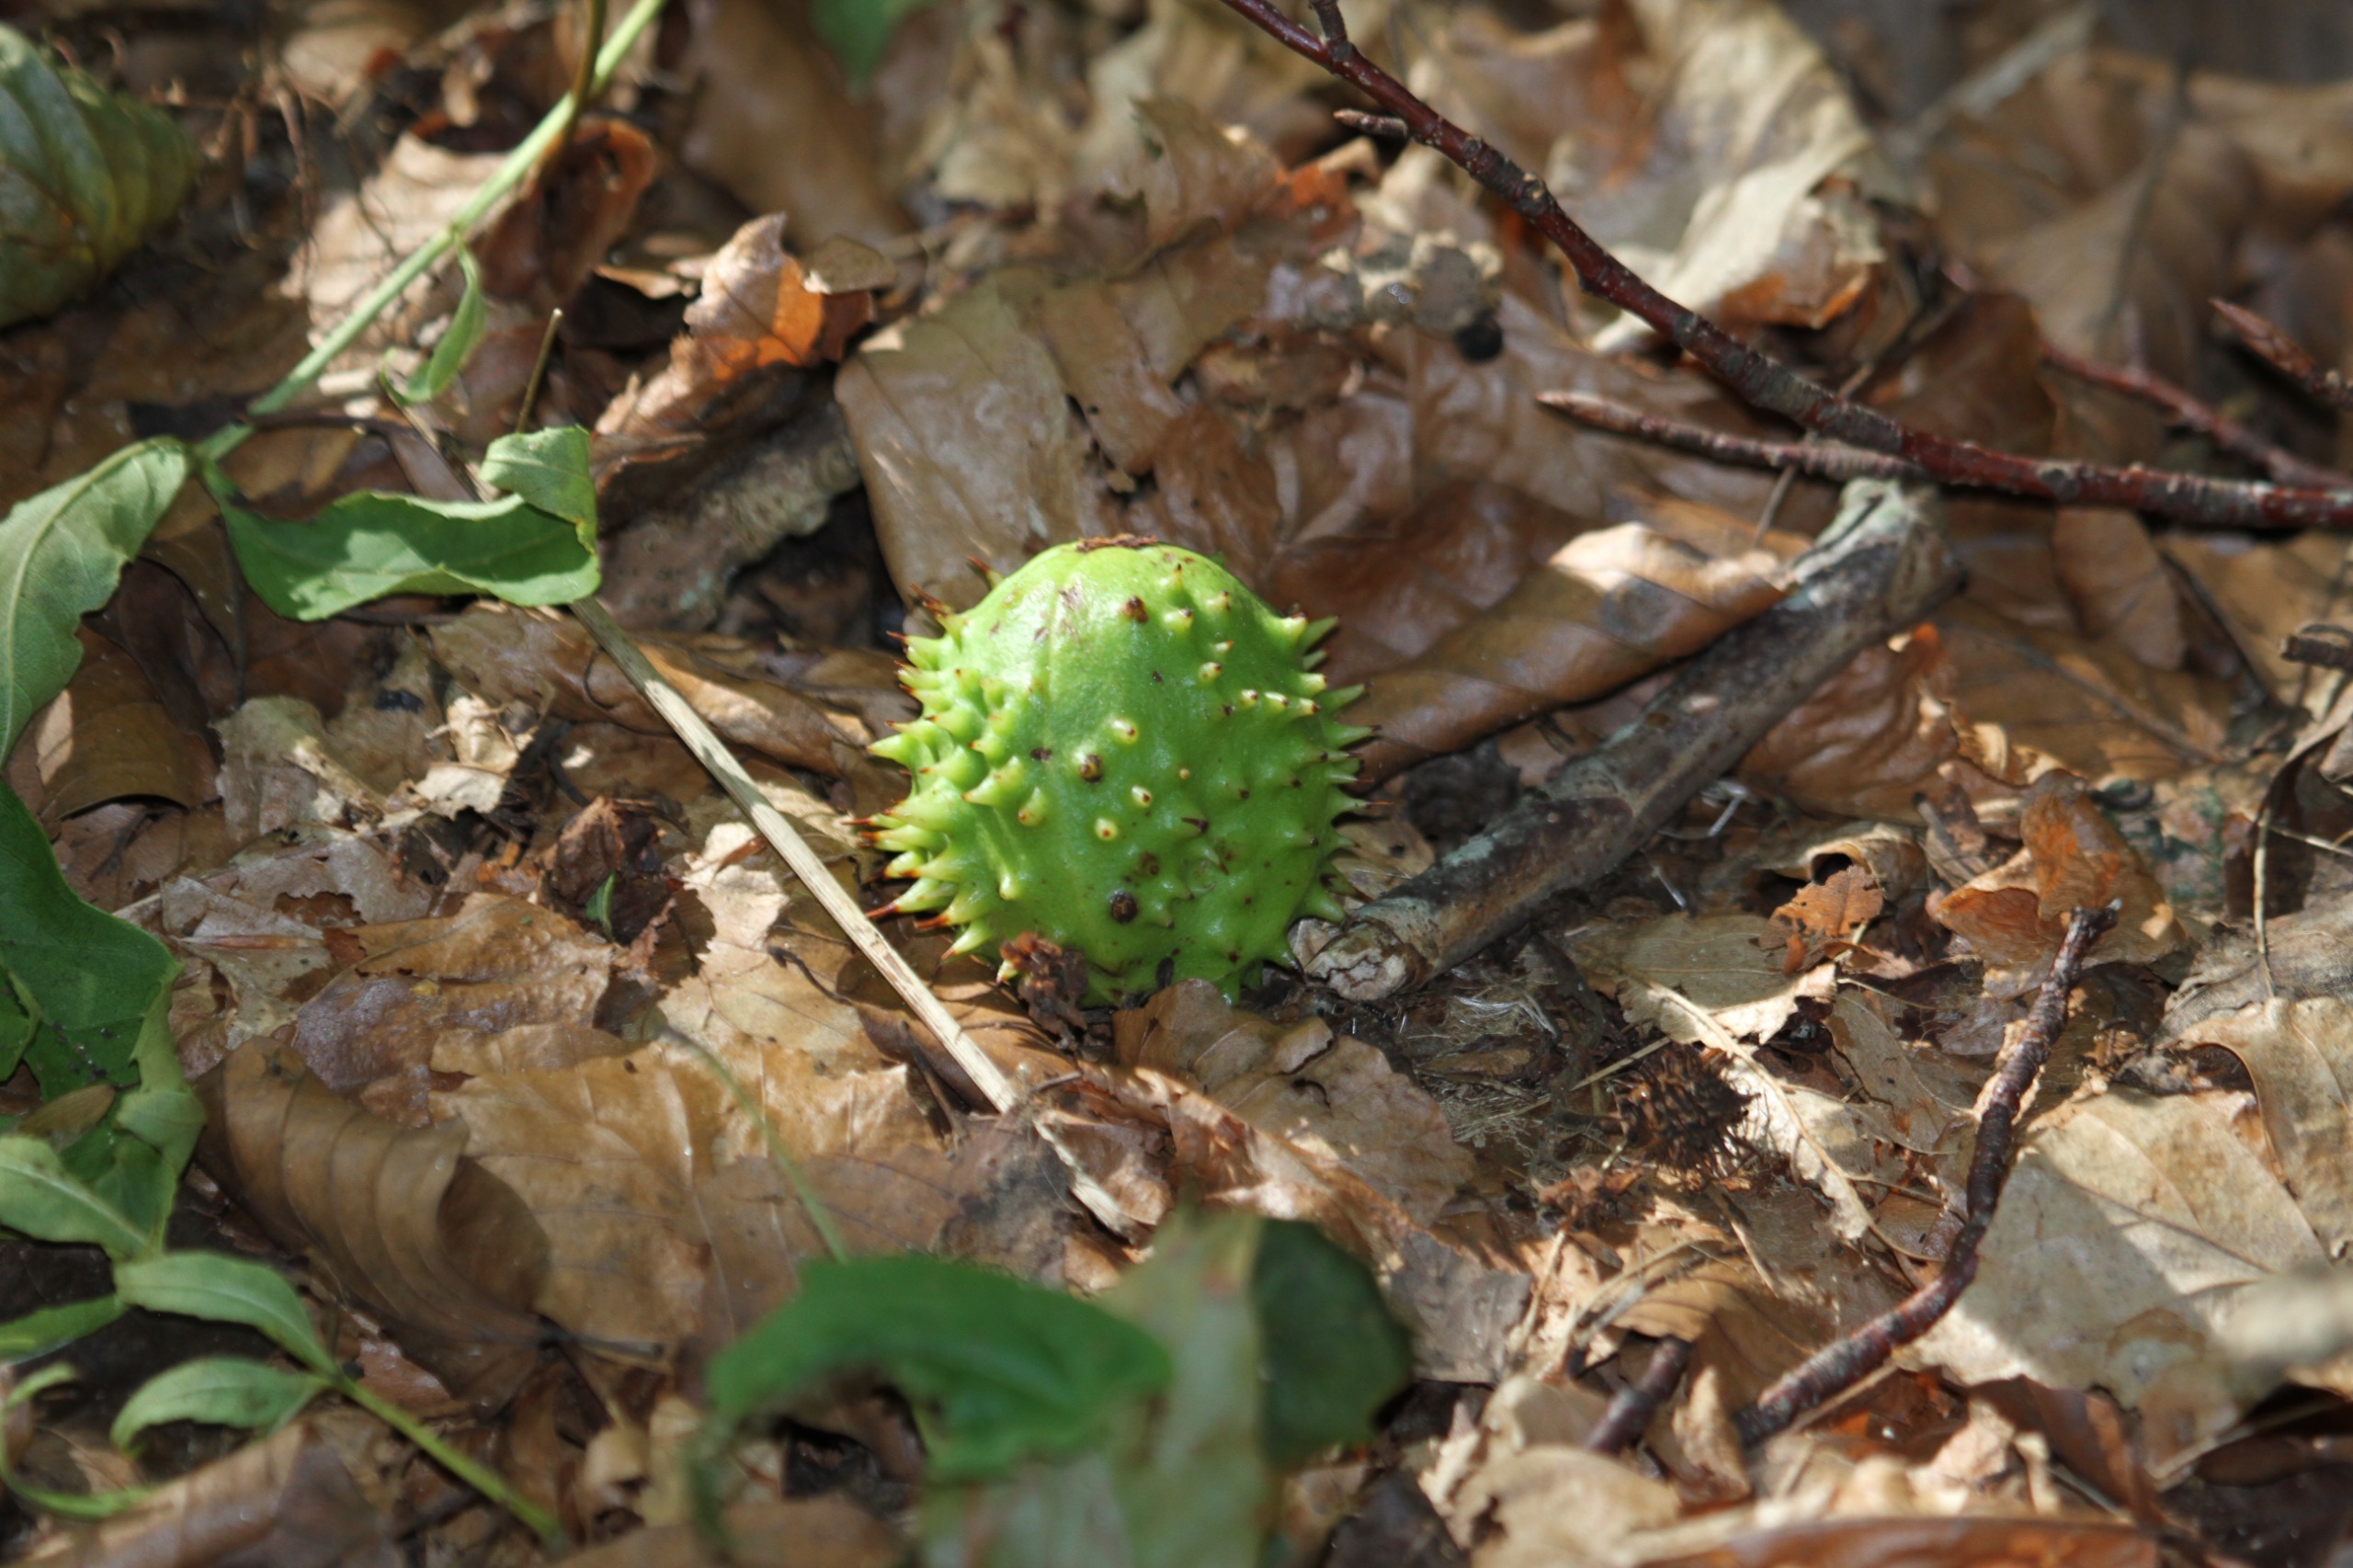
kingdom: Plantae
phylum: Tracheophyta
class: Magnoliopsida
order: Sapindales
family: Sapindaceae
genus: Aesculus
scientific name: Aesculus hippocastanum
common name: Hestekastanie
